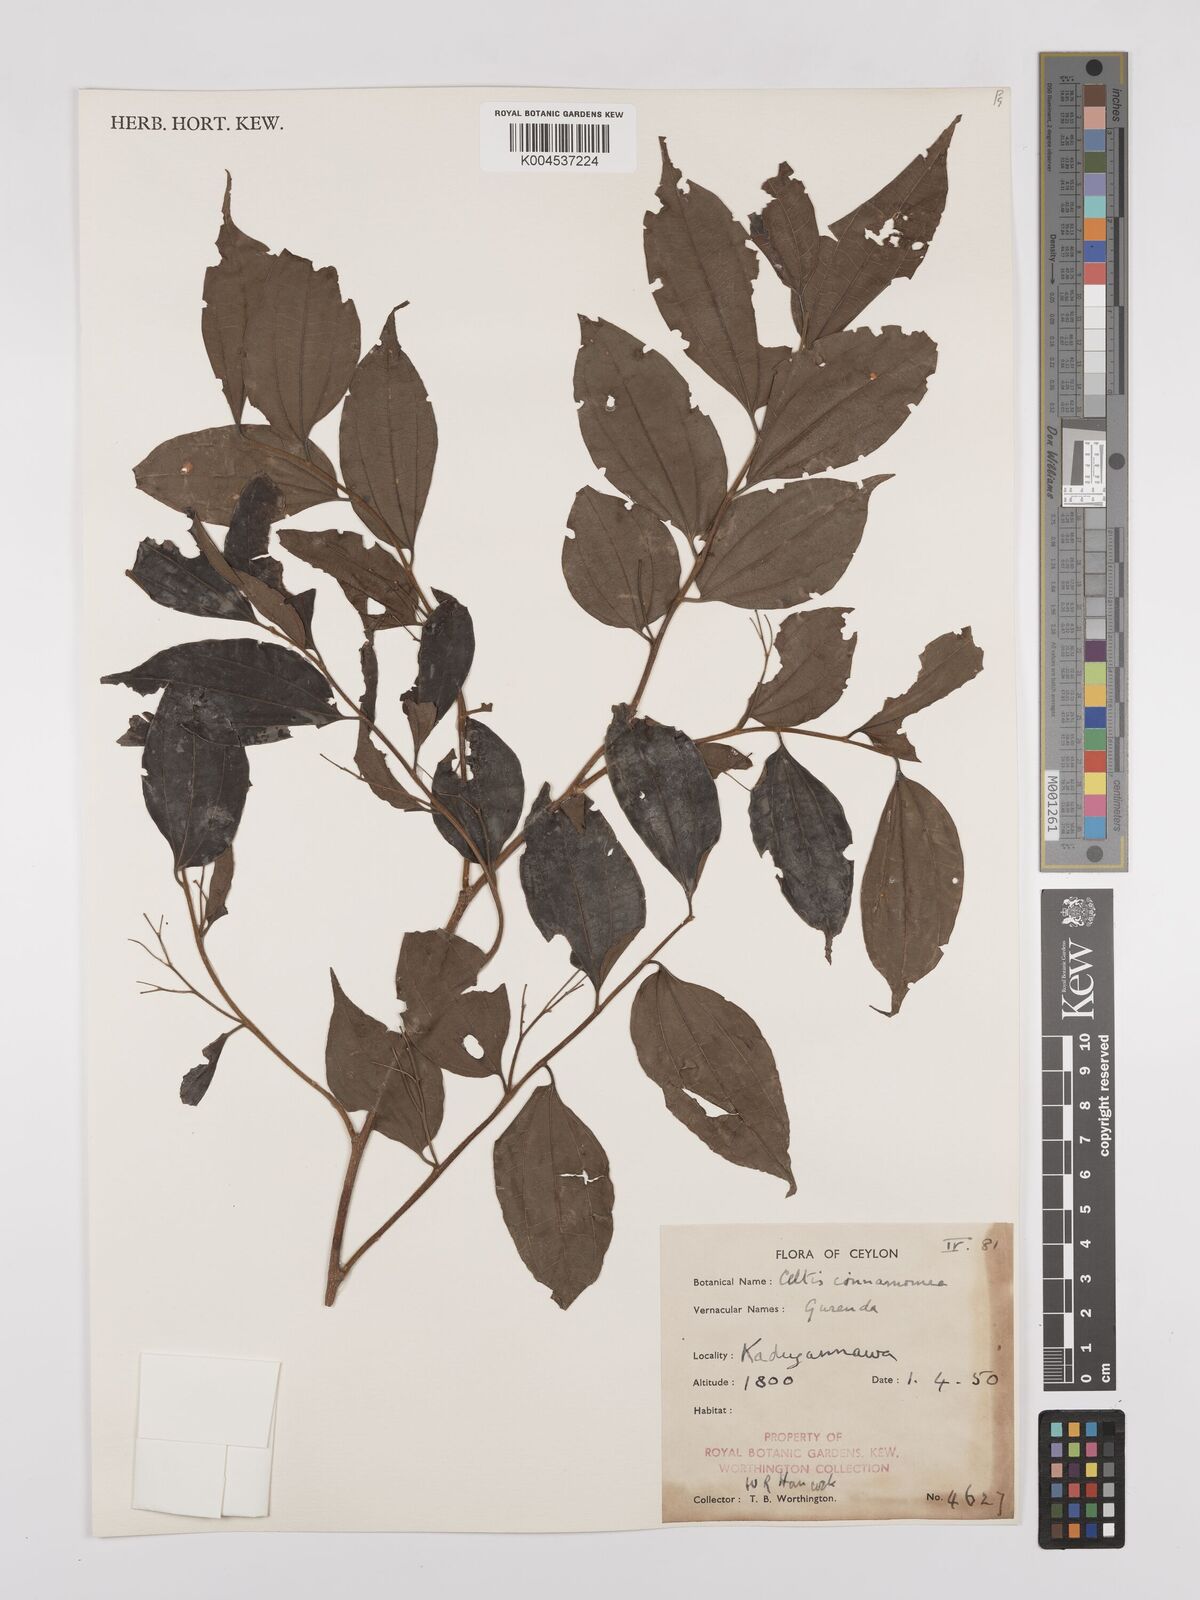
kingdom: Plantae
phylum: Tracheophyta
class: Magnoliopsida
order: Rosales
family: Cannabaceae
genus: Celtis
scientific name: Celtis timorensis
